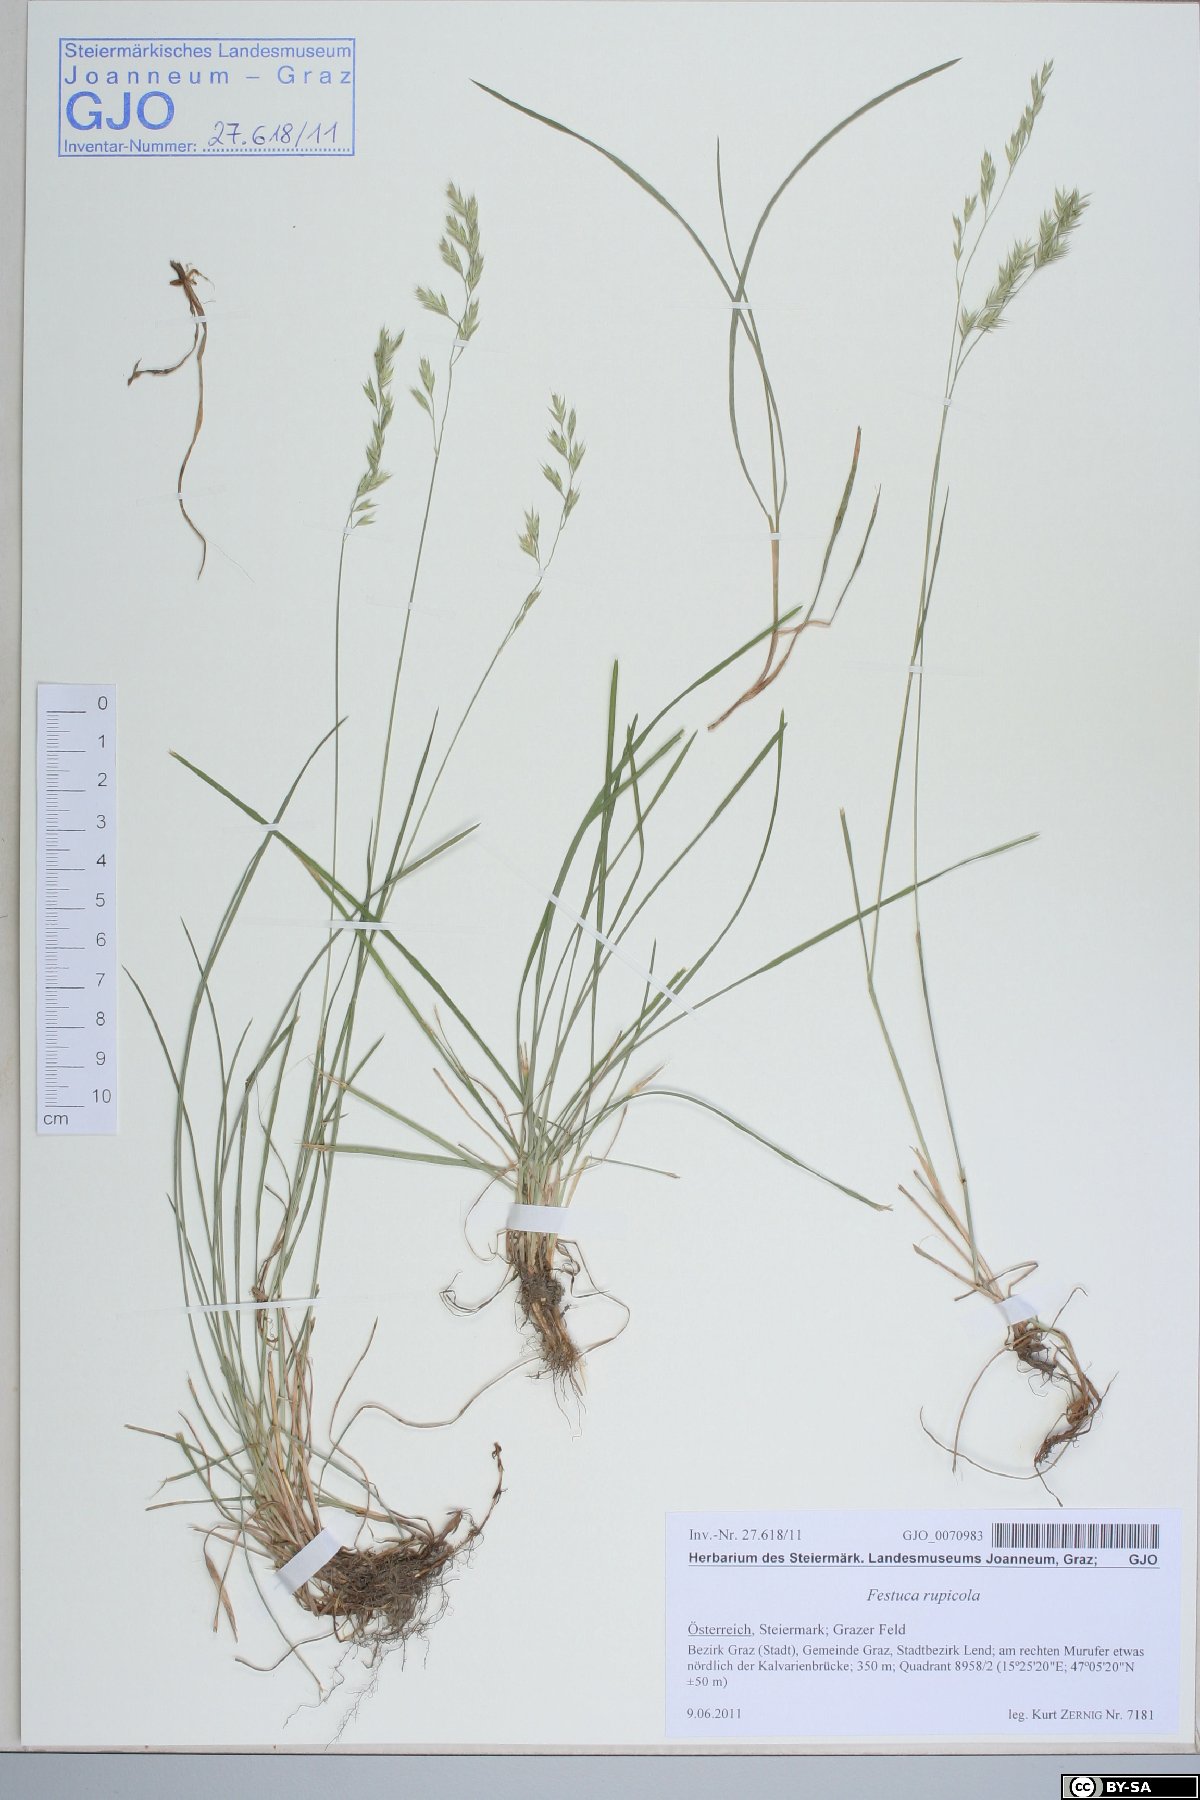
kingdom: Plantae
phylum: Tracheophyta
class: Liliopsida
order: Poales
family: Poaceae
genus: Festuca
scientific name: Festuca rupicola
